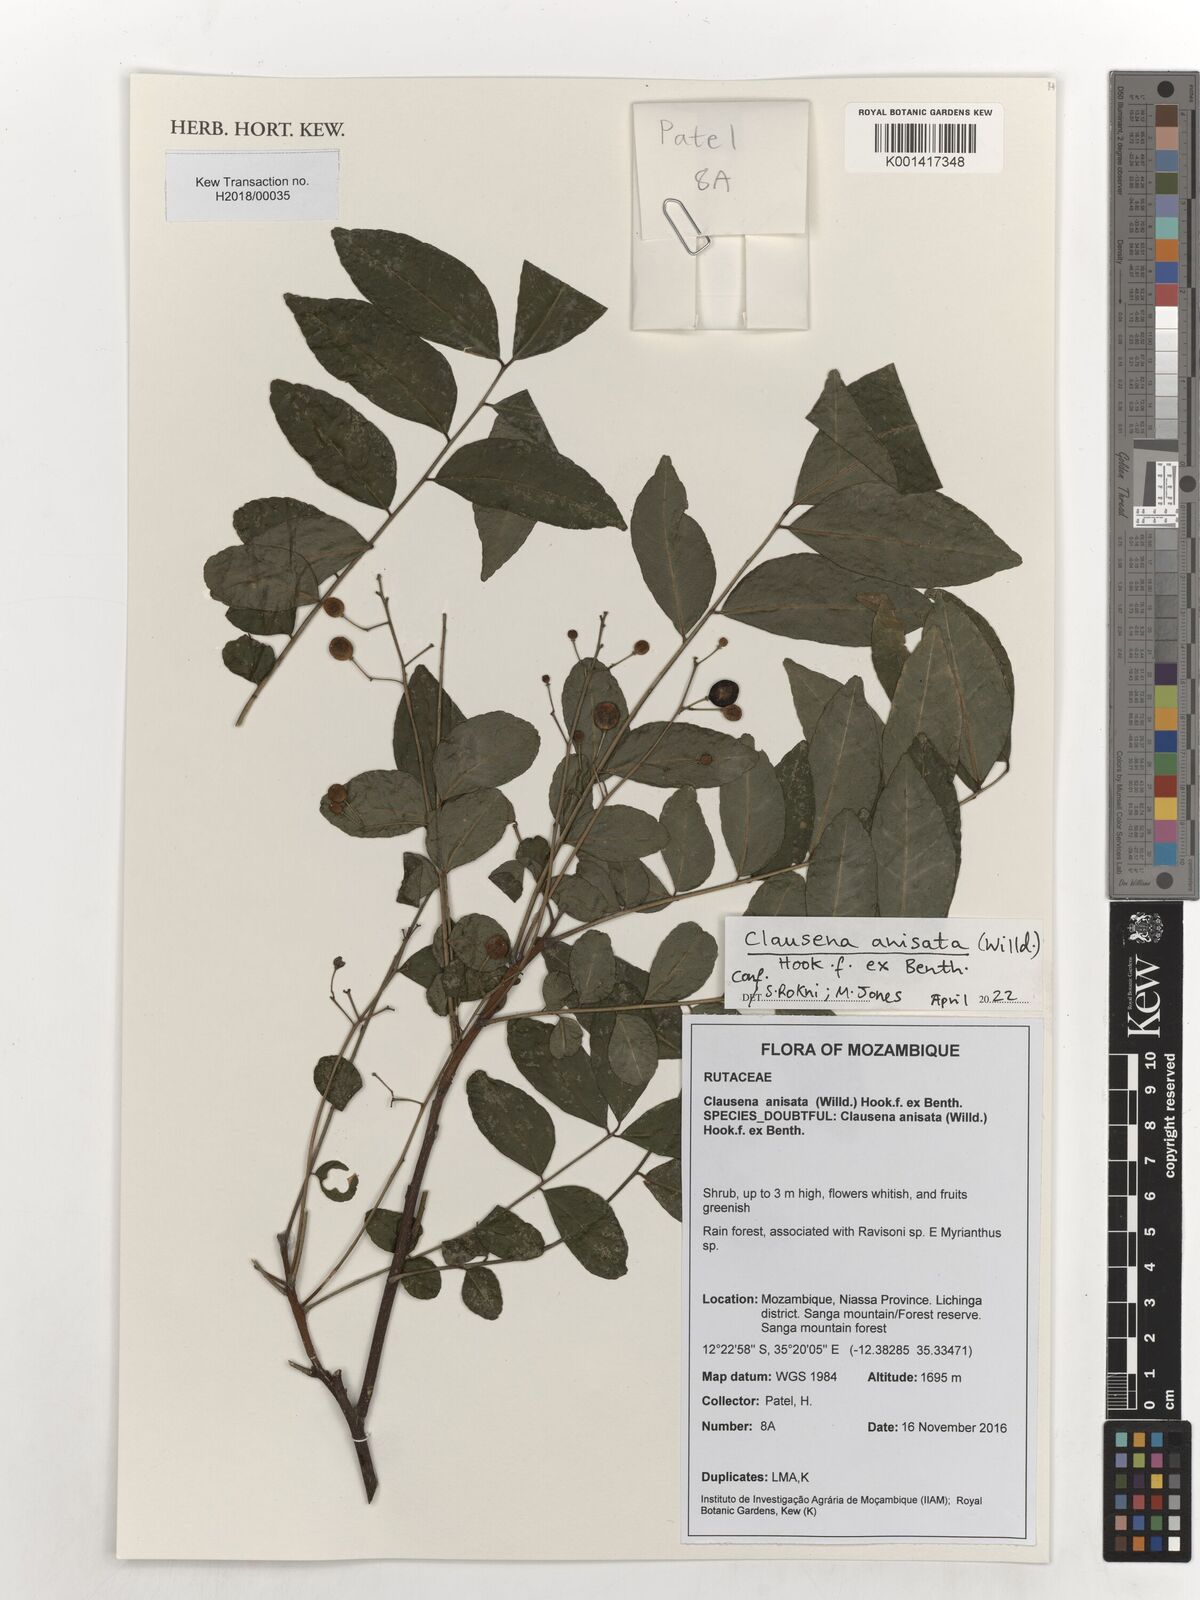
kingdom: Plantae
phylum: Tracheophyta
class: Magnoliopsida
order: Sapindales
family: Rutaceae
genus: Clausena
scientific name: Clausena anisata
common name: Horsewood
